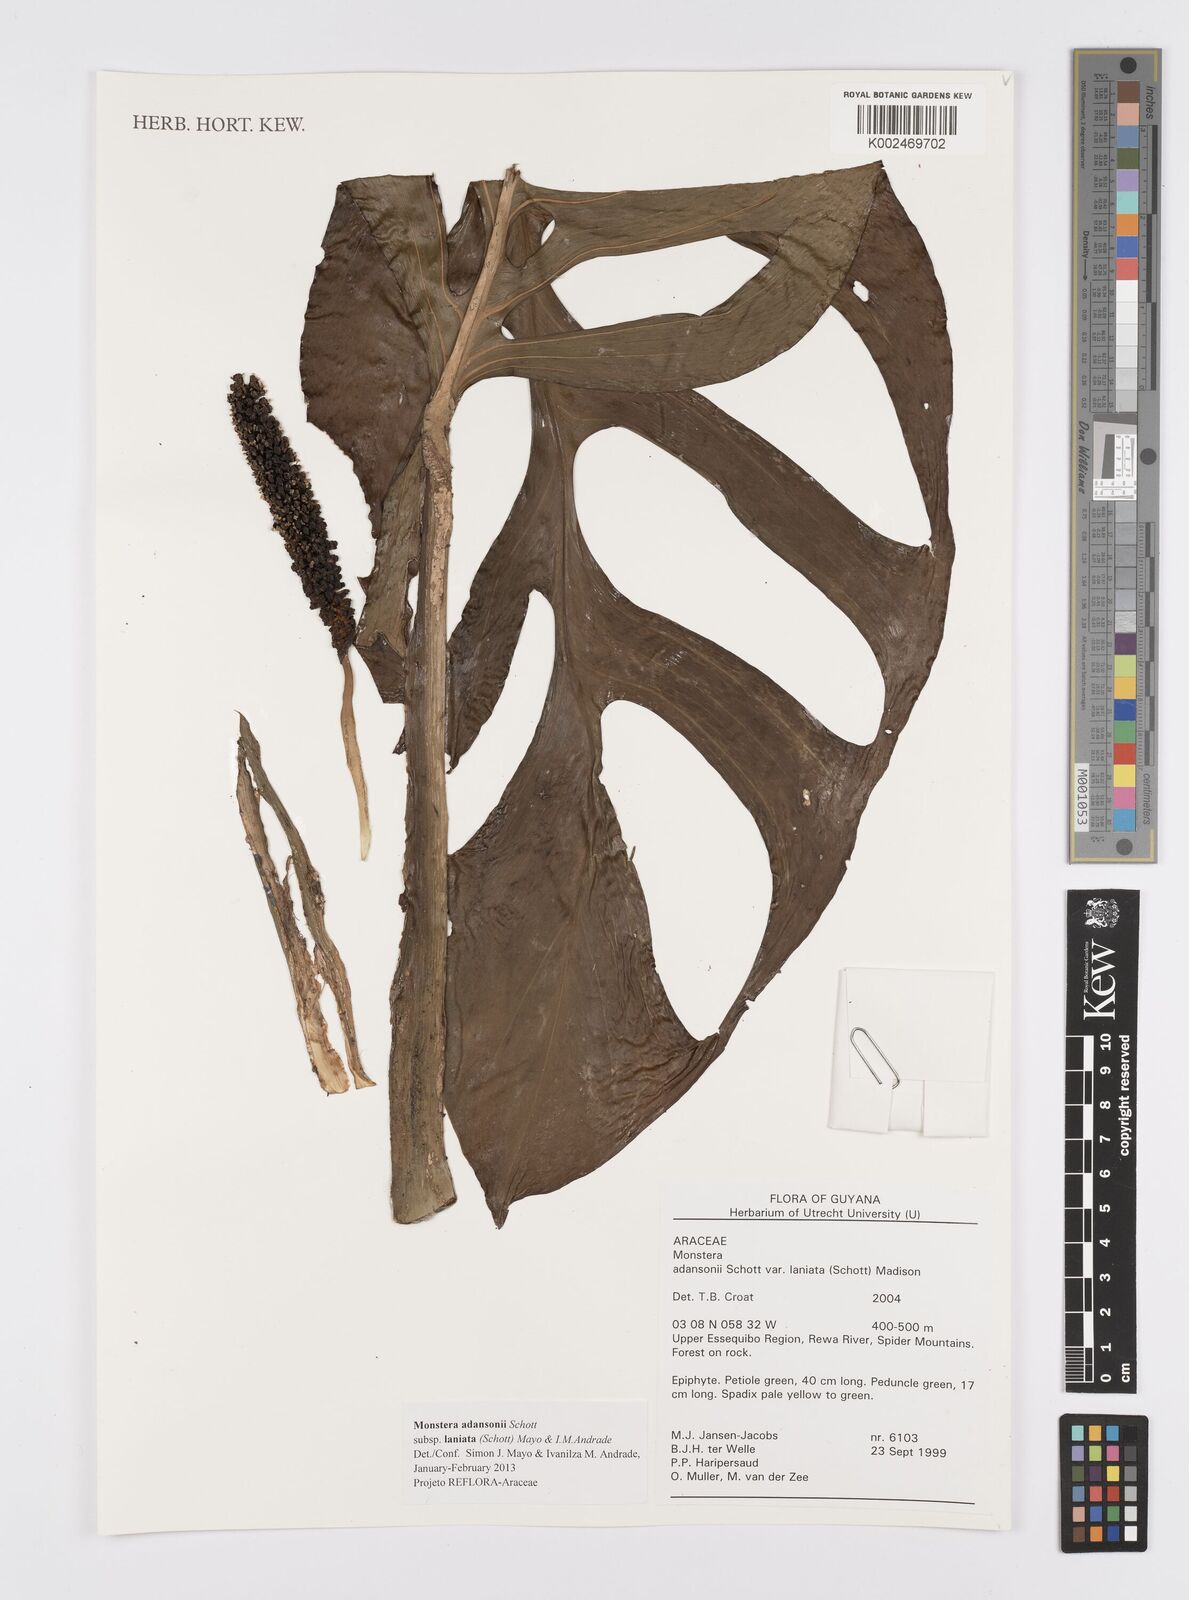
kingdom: Plantae
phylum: Tracheophyta
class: Liliopsida
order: Alismatales
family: Araceae
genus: Monstera
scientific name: Monstera adansonii
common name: Tarovine
